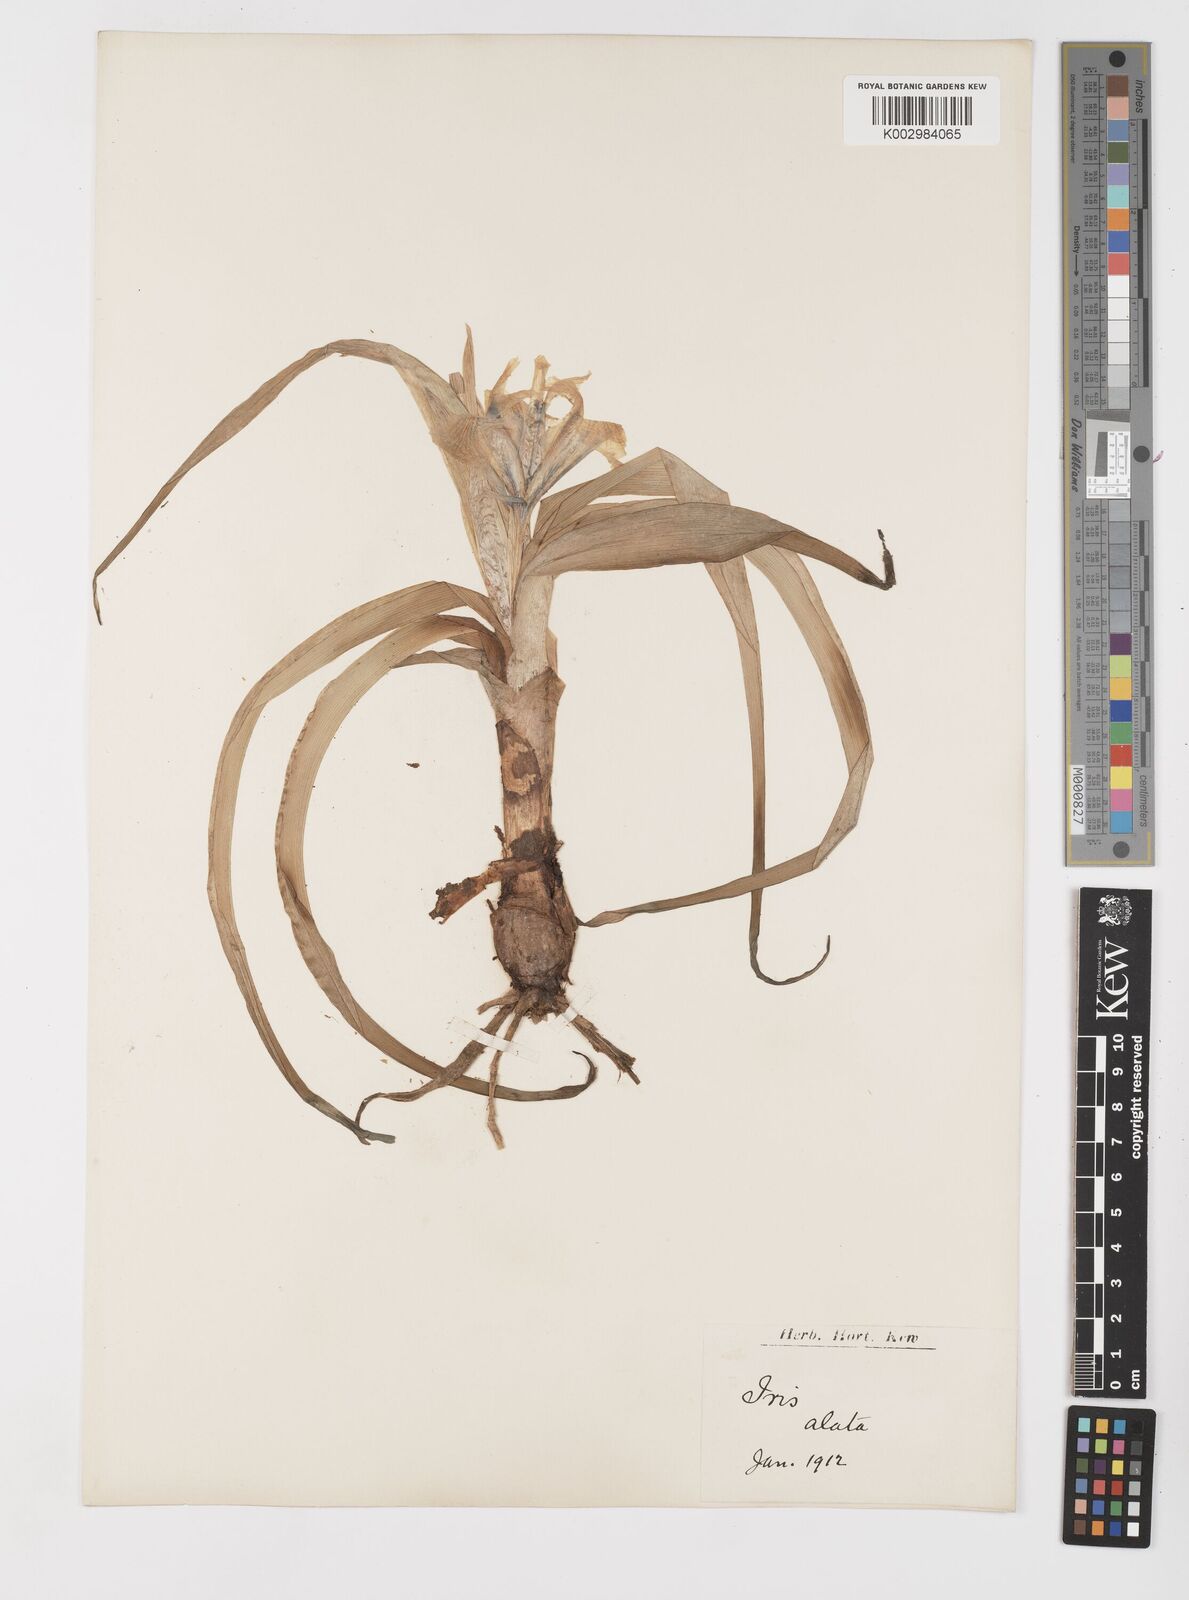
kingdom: Plantae
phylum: Tracheophyta
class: Liliopsida
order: Asparagales
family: Iridaceae
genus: Iris
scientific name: Iris planifolia
